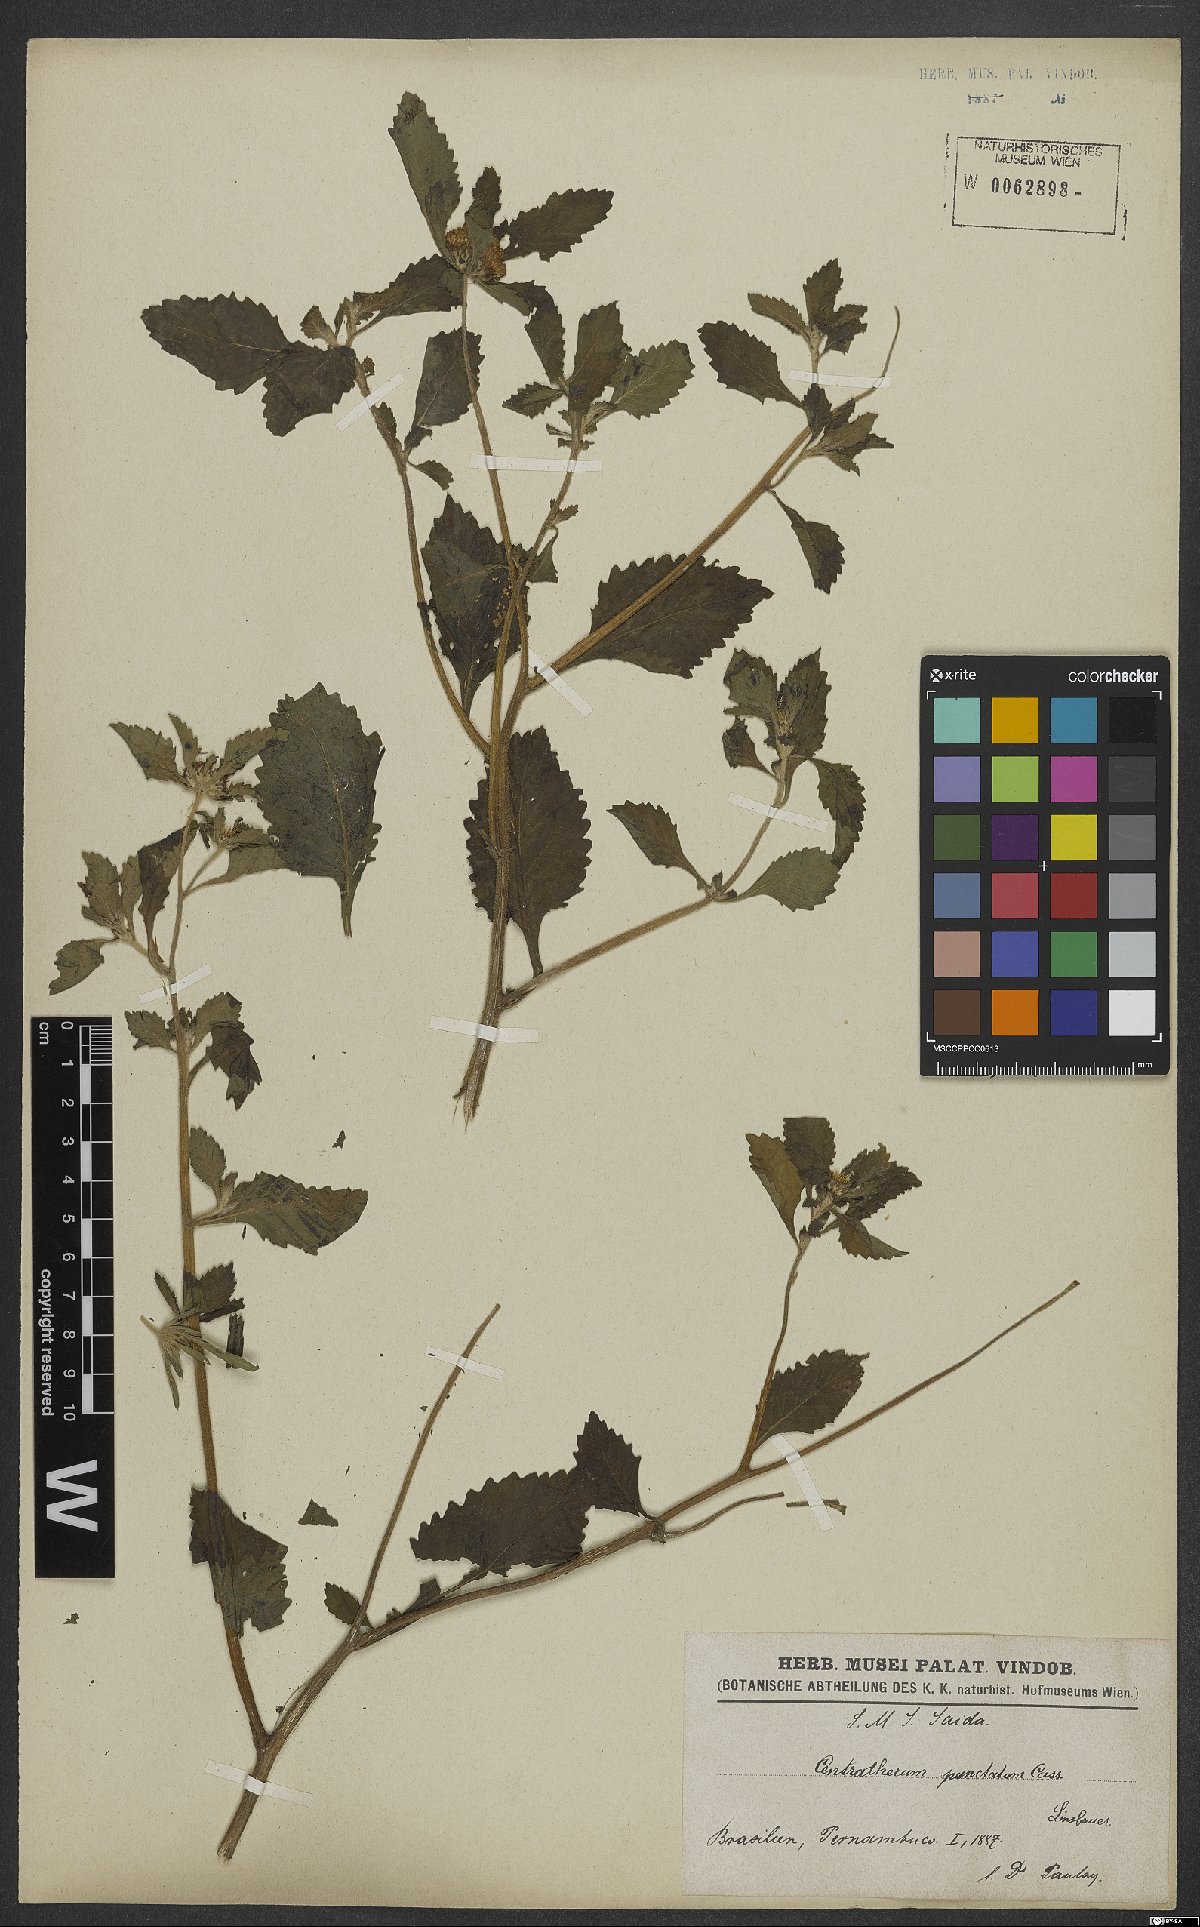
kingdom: Plantae
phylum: Tracheophyta
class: Magnoliopsida
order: Asterales
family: Asteraceae
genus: Centratherum
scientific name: Centratherum punctatum
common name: Larkdaisy
